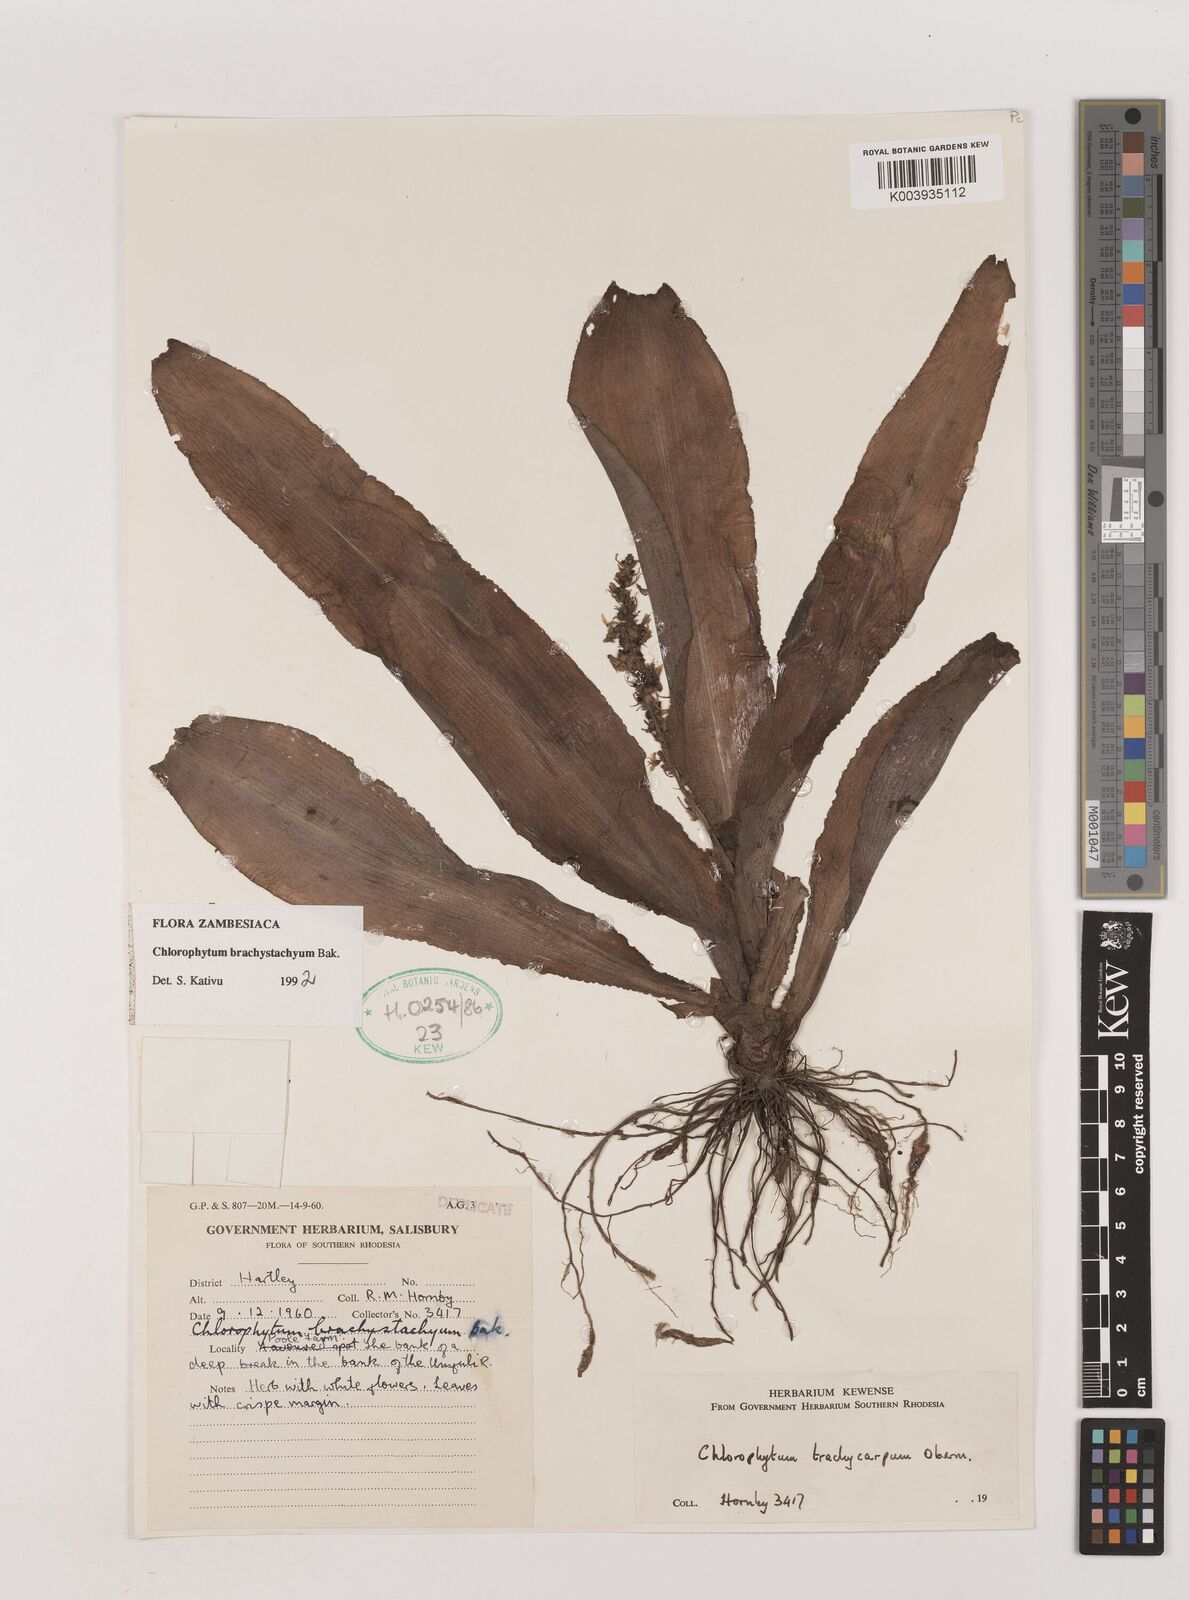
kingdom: Plantae
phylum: Tracheophyta
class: Liliopsida
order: Asparagales
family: Asparagaceae
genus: Chlorophytum
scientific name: Chlorophytum brachystachyum
